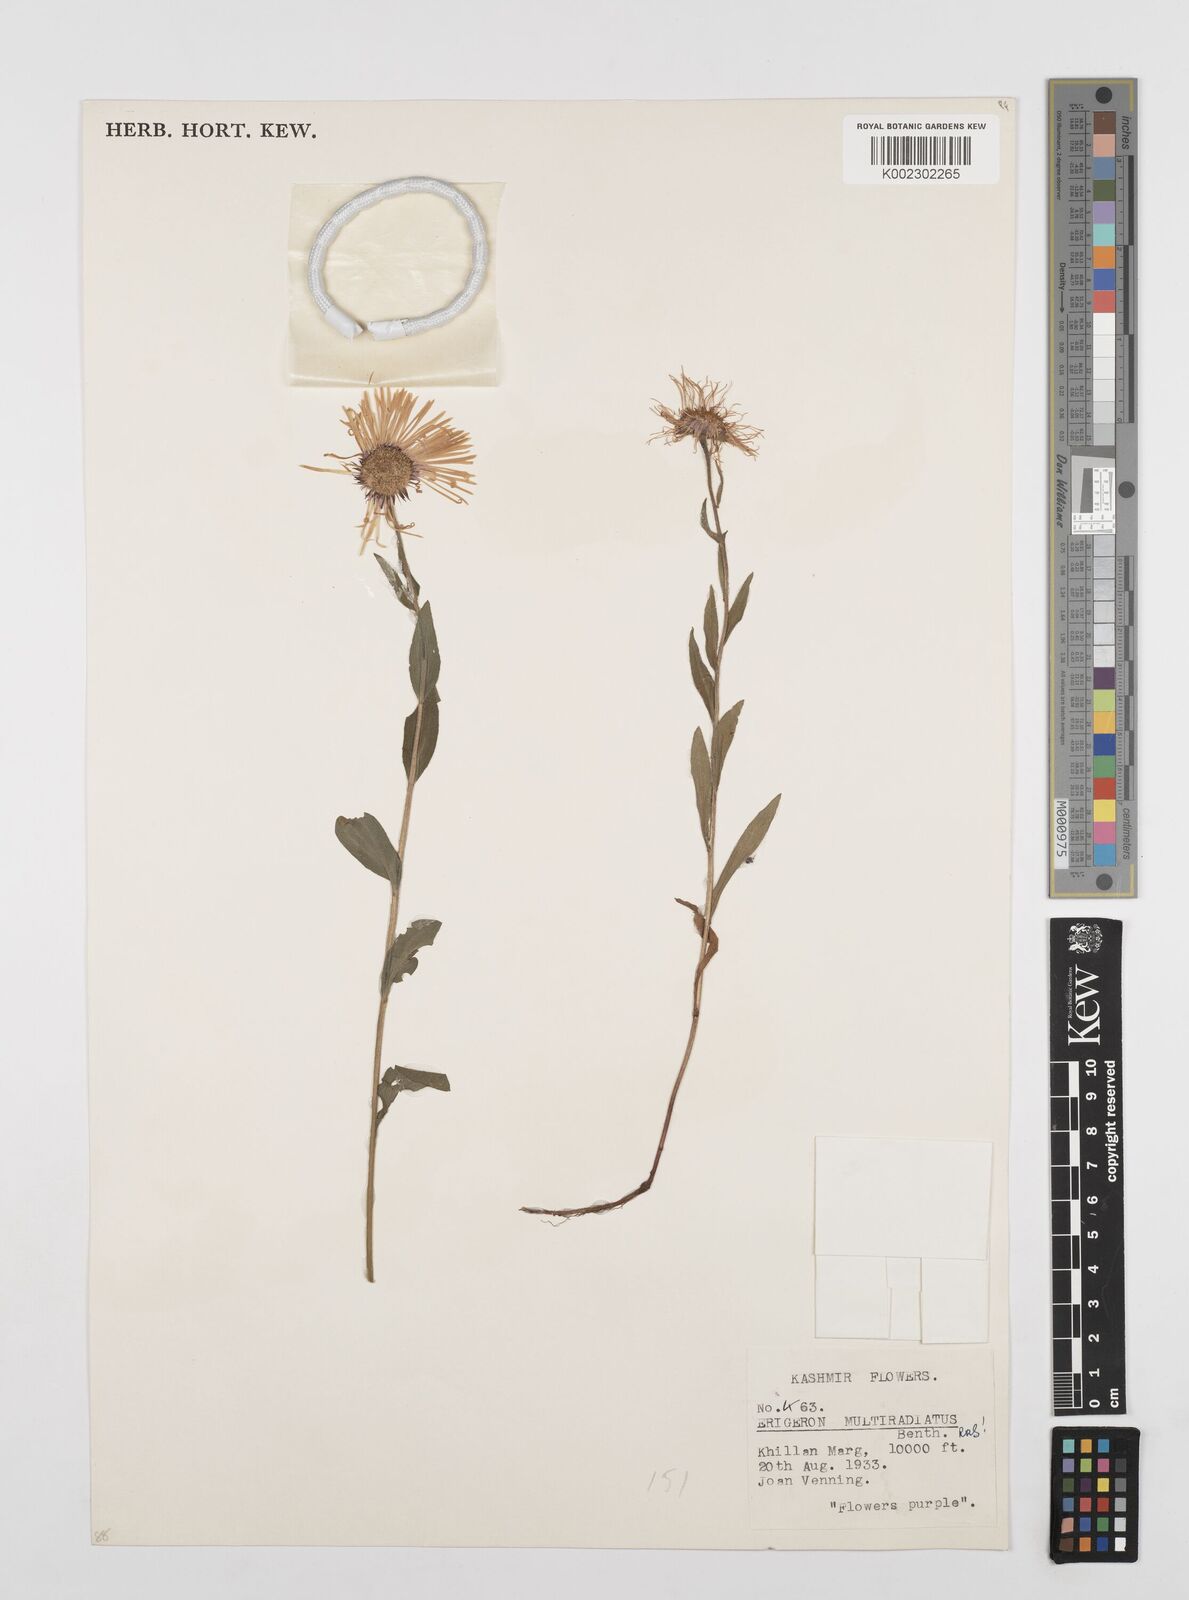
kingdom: Plantae
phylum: Tracheophyta
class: Magnoliopsida
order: Asterales
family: Asteraceae
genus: Erigeron
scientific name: Erigeron multiradiatus
